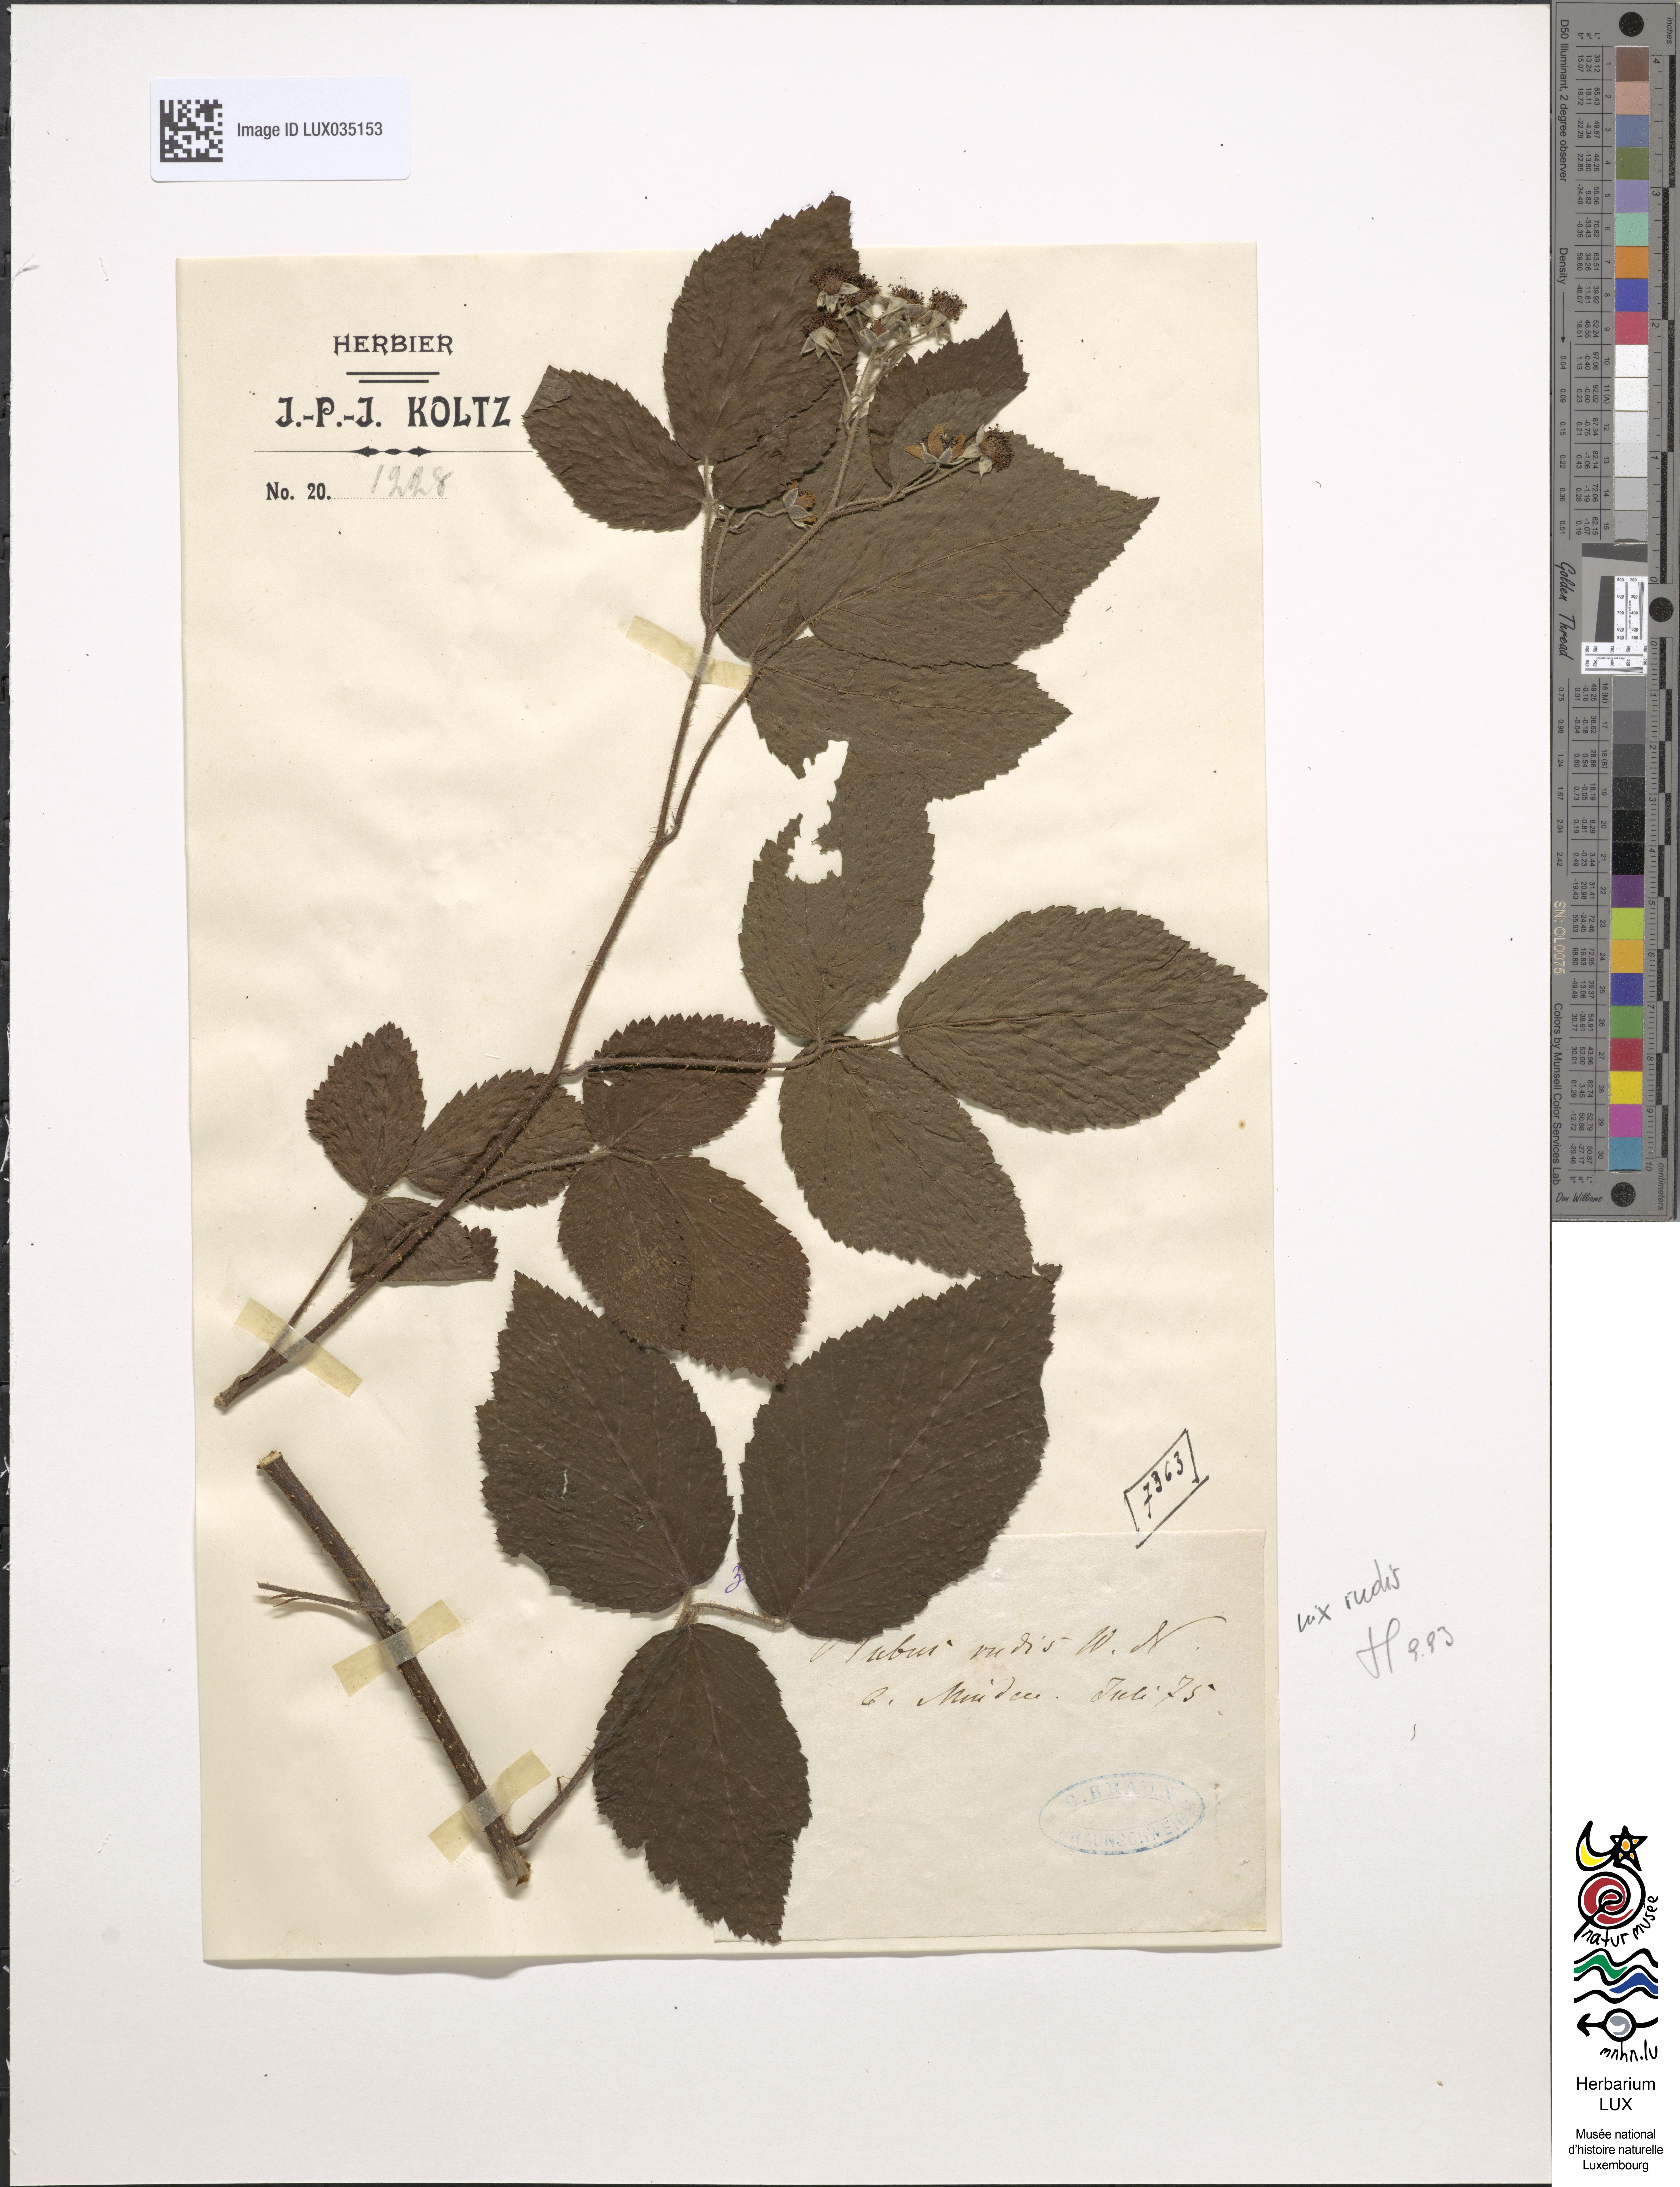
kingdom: Plantae
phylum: Tracheophyta
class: Magnoliopsida
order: Rosales
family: Rosaceae
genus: Rubus
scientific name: Rubus rhombifolius
